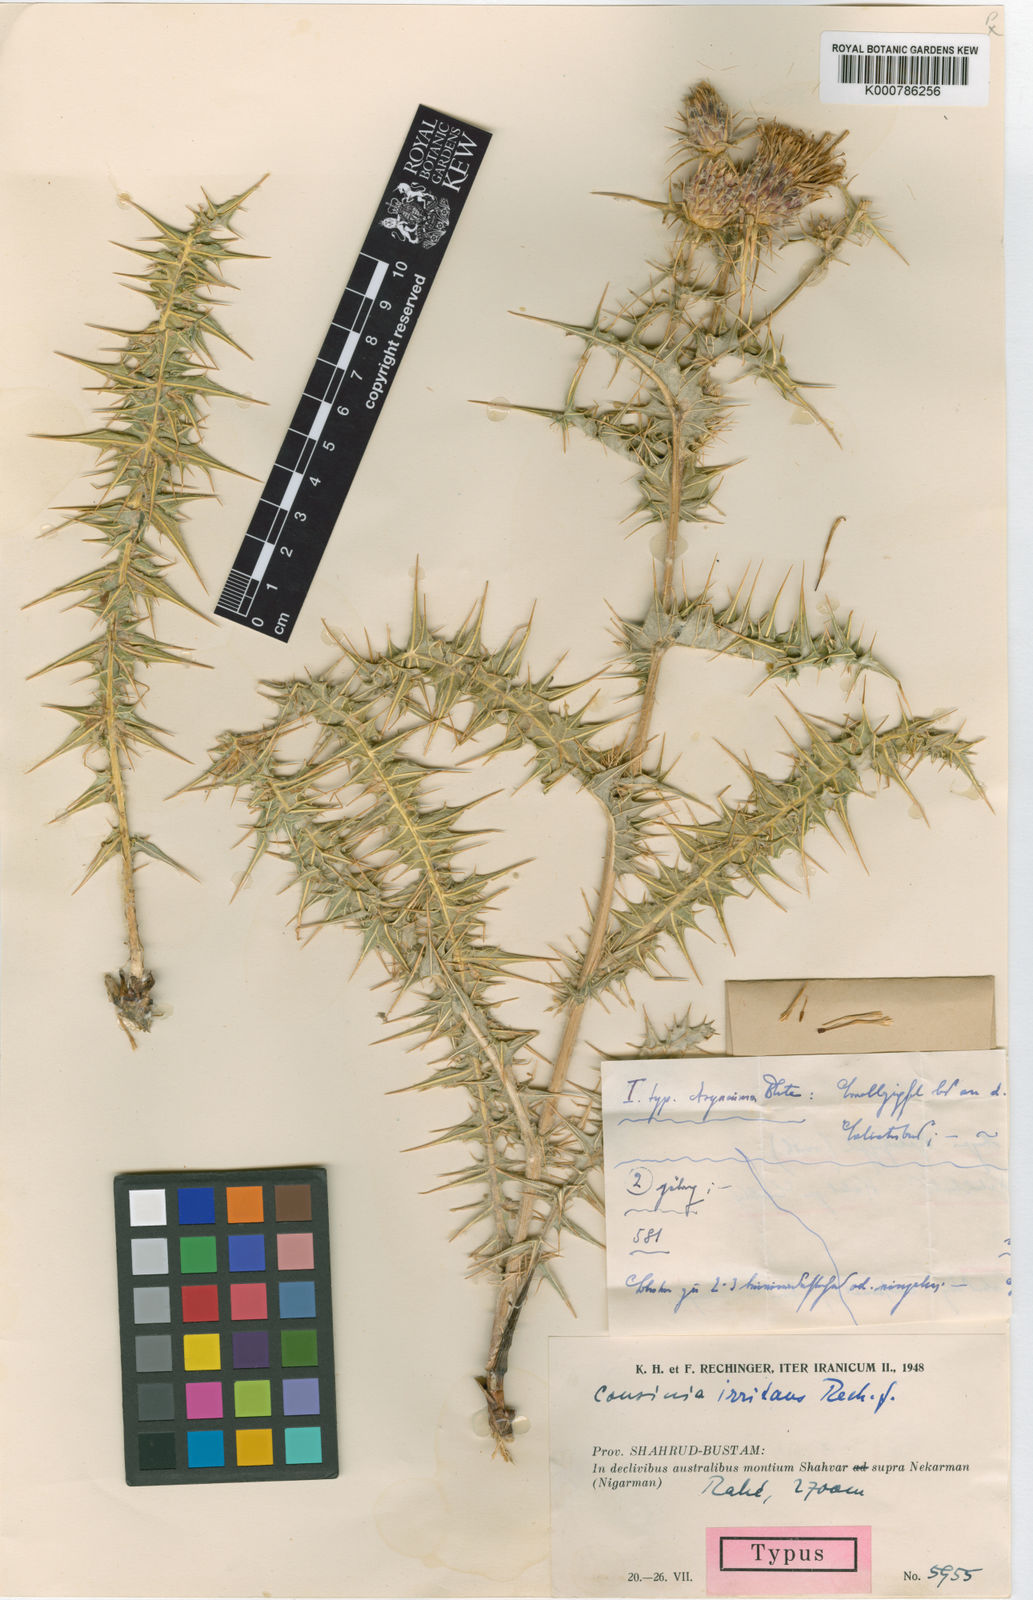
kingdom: Plantae
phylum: Tracheophyta
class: Magnoliopsida
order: Asterales
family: Asteraceae
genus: Cousinia
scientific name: Cousinia irritans
